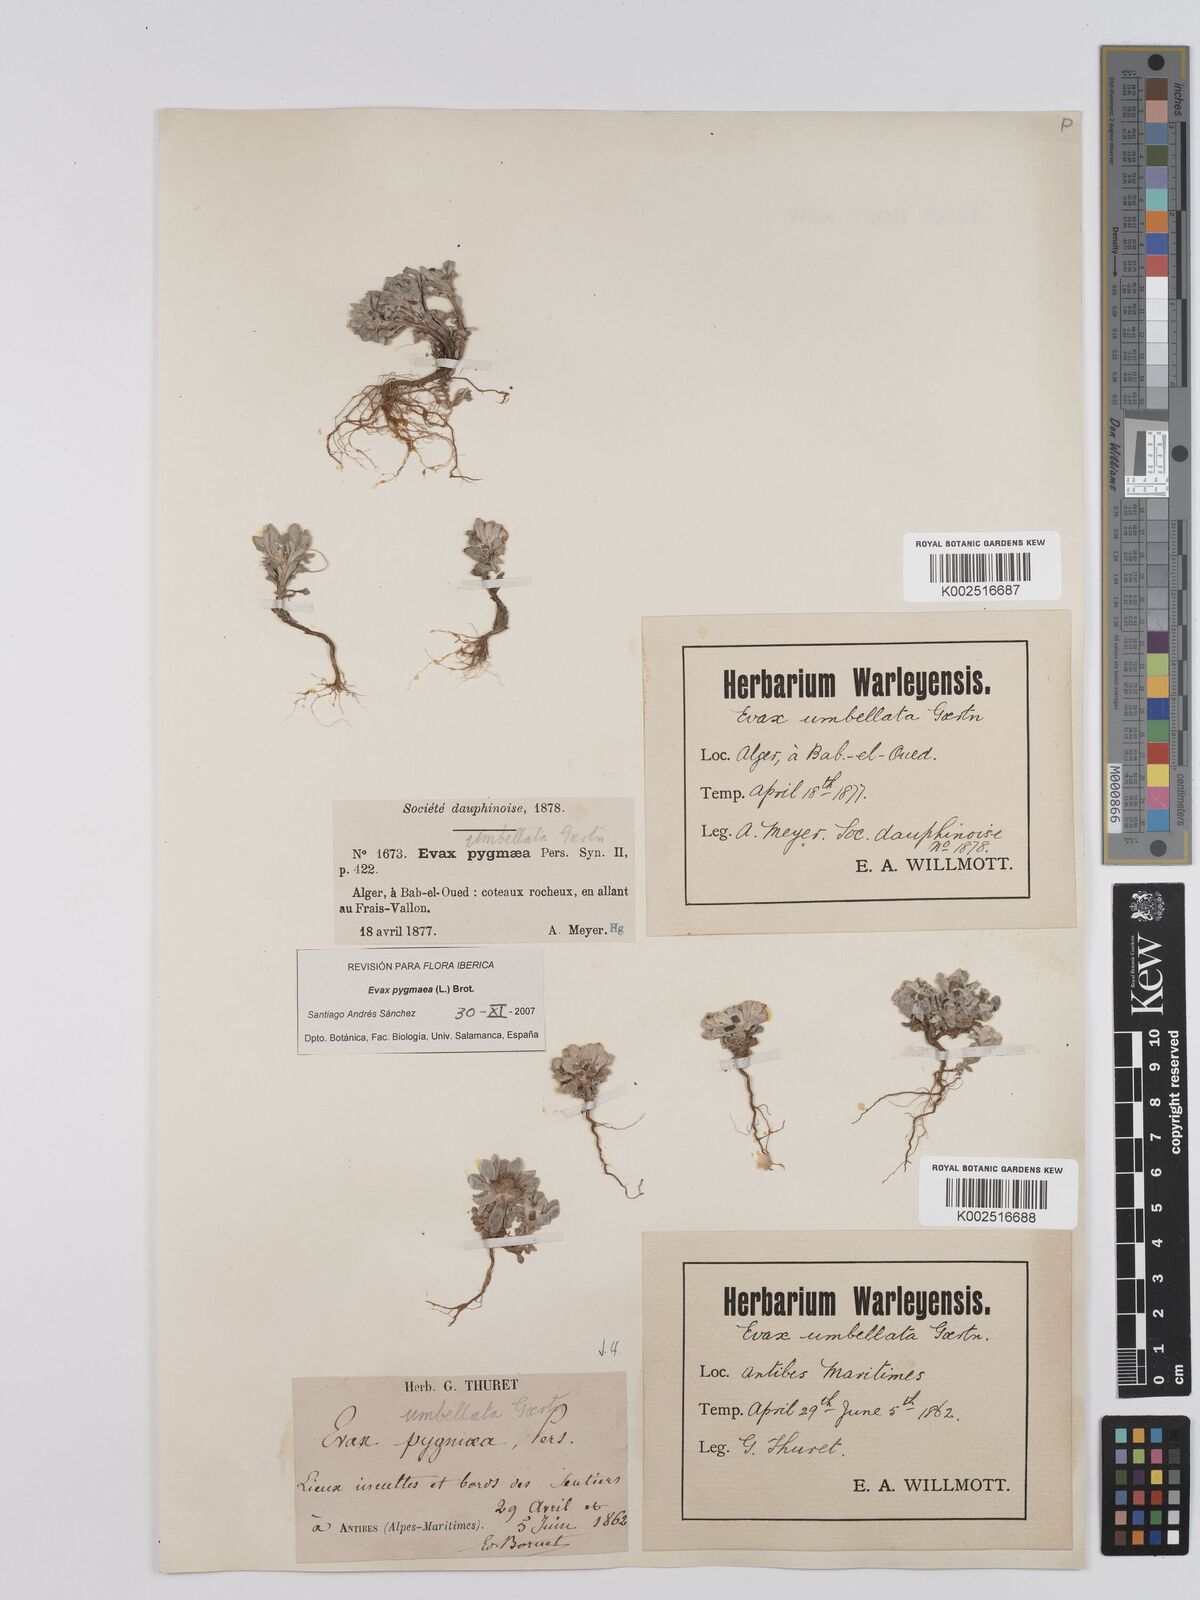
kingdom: Plantae
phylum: Tracheophyta
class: Magnoliopsida
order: Asterales
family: Asteraceae
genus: Filago
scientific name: Filago pygmaea
